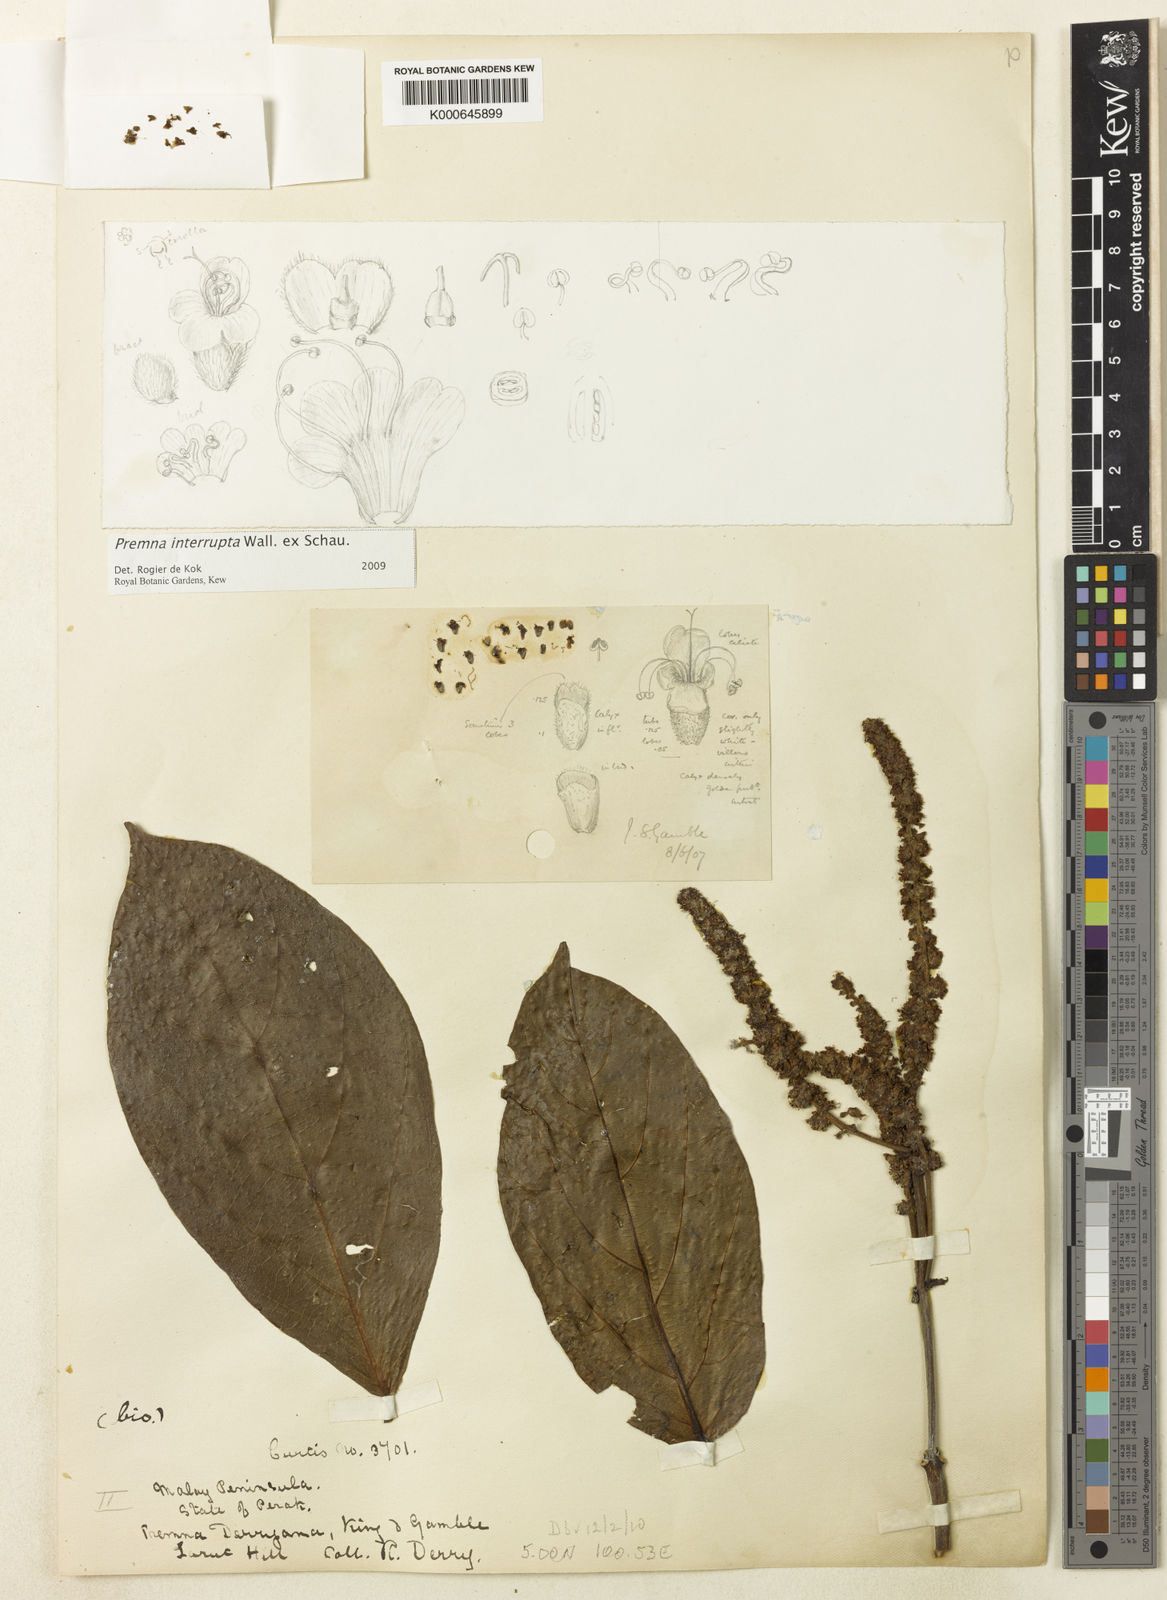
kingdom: Plantae
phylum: Tracheophyta
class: Magnoliopsida
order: Lamiales
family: Lamiaceae
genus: Premna
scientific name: Premna
